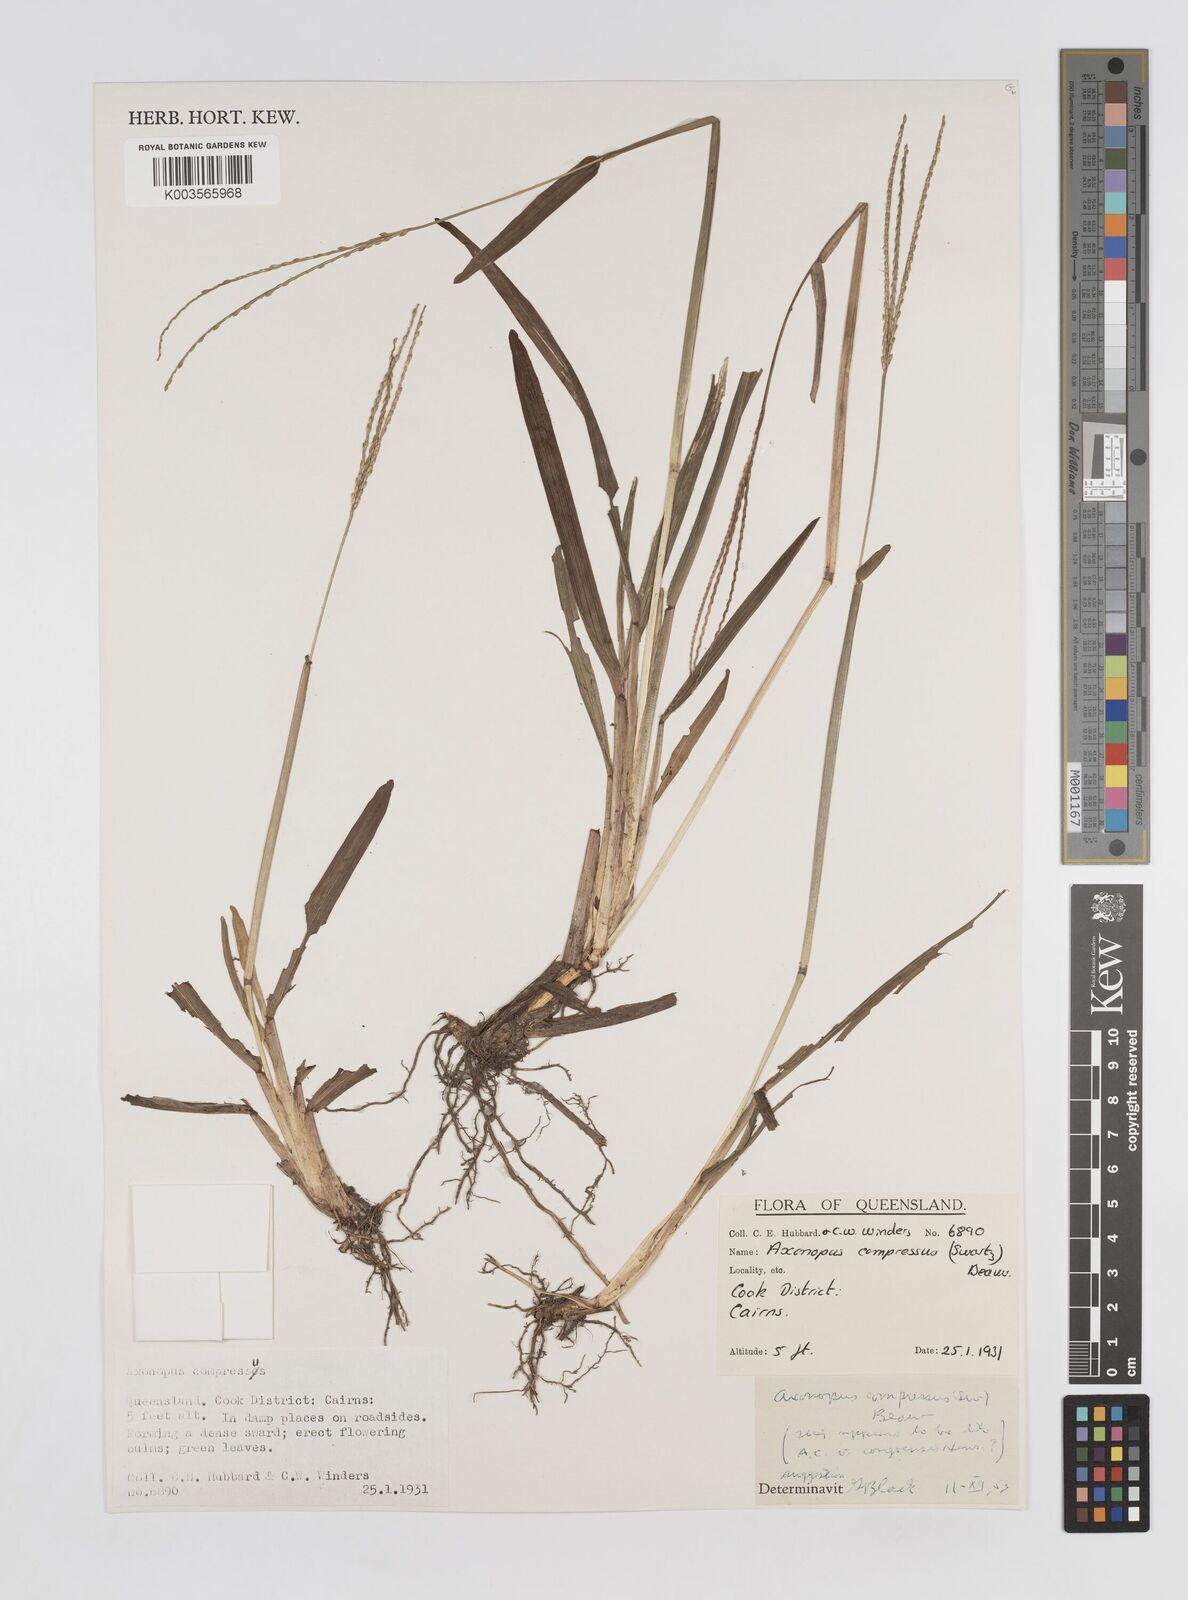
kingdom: Plantae
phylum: Tracheophyta
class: Liliopsida
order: Poales
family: Poaceae
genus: Axonopus
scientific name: Axonopus compressus
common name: American carpet grass
